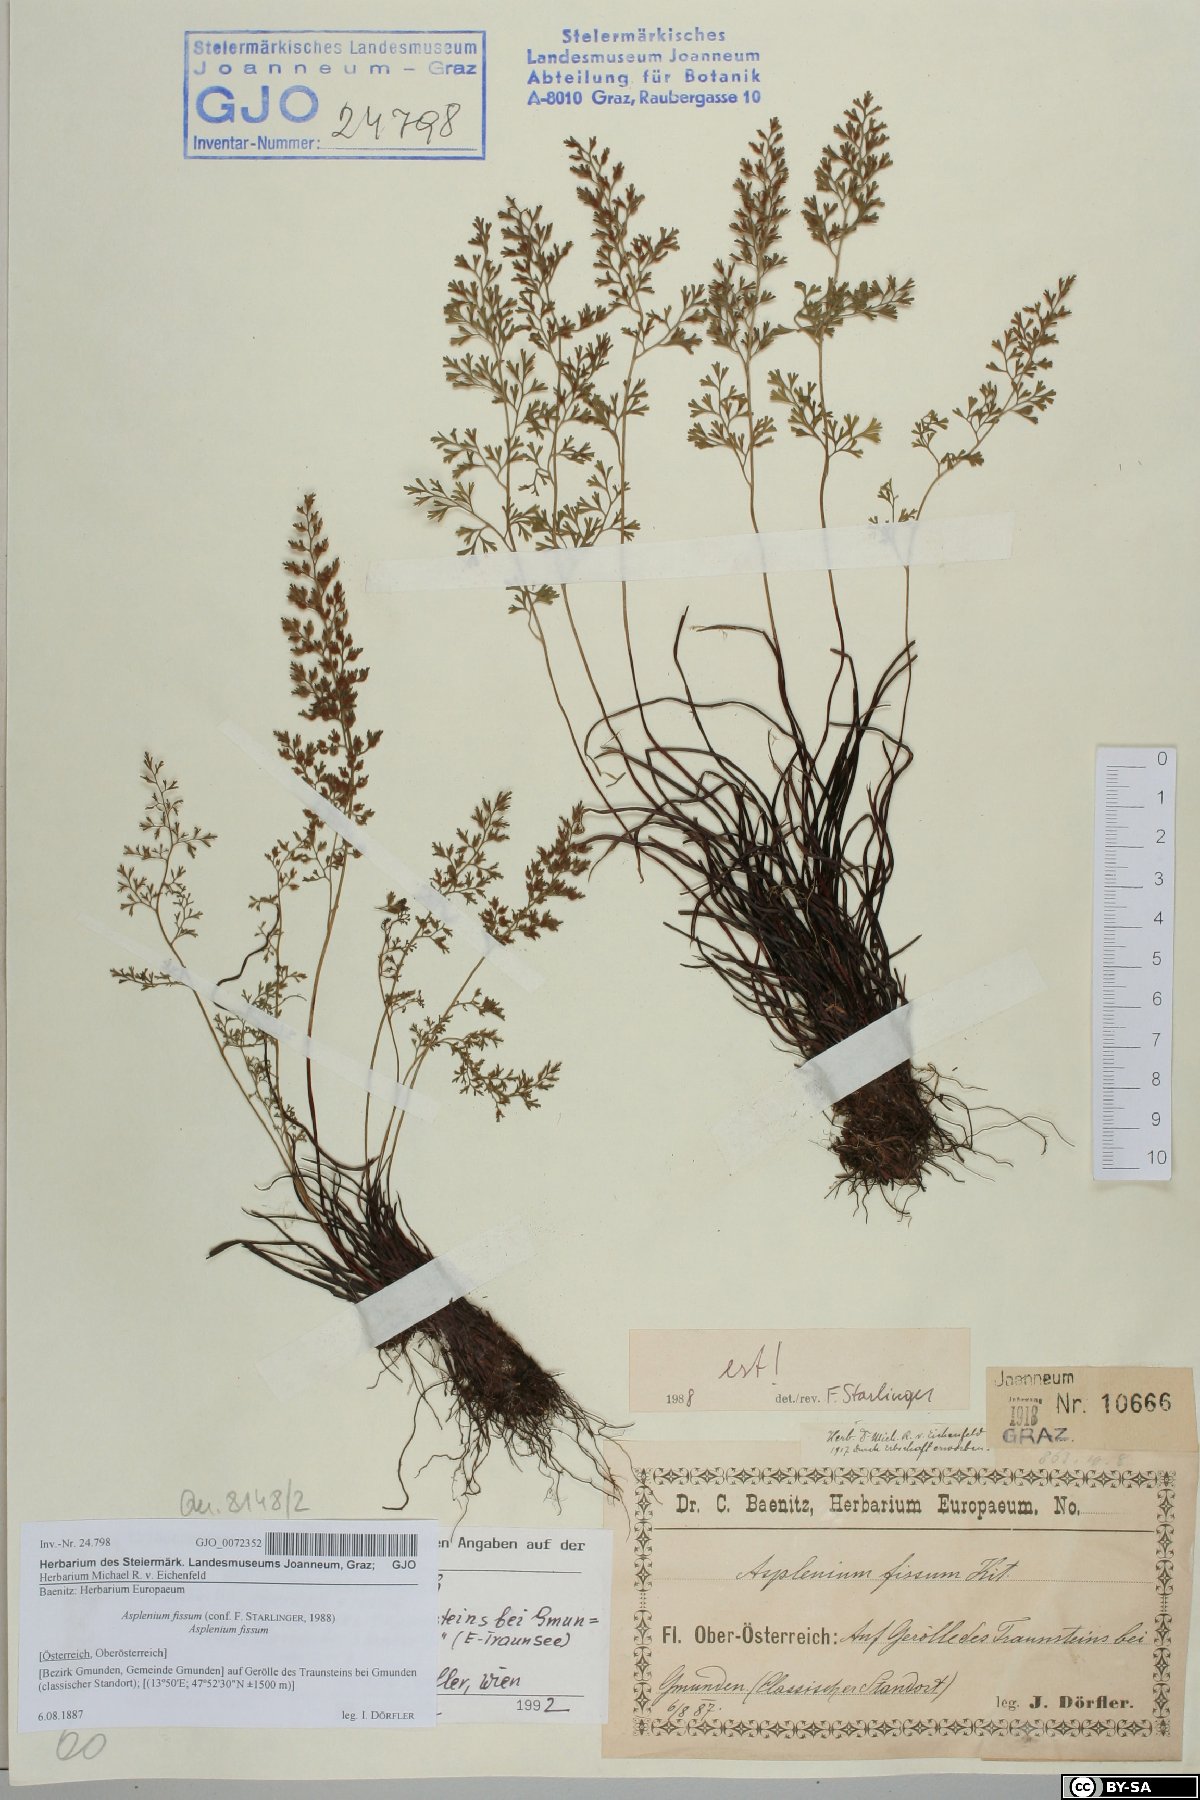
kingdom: Plantae
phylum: Tracheophyta
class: Polypodiopsida
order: Polypodiales
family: Aspleniaceae
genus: Asplenium
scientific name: Asplenium fissum
